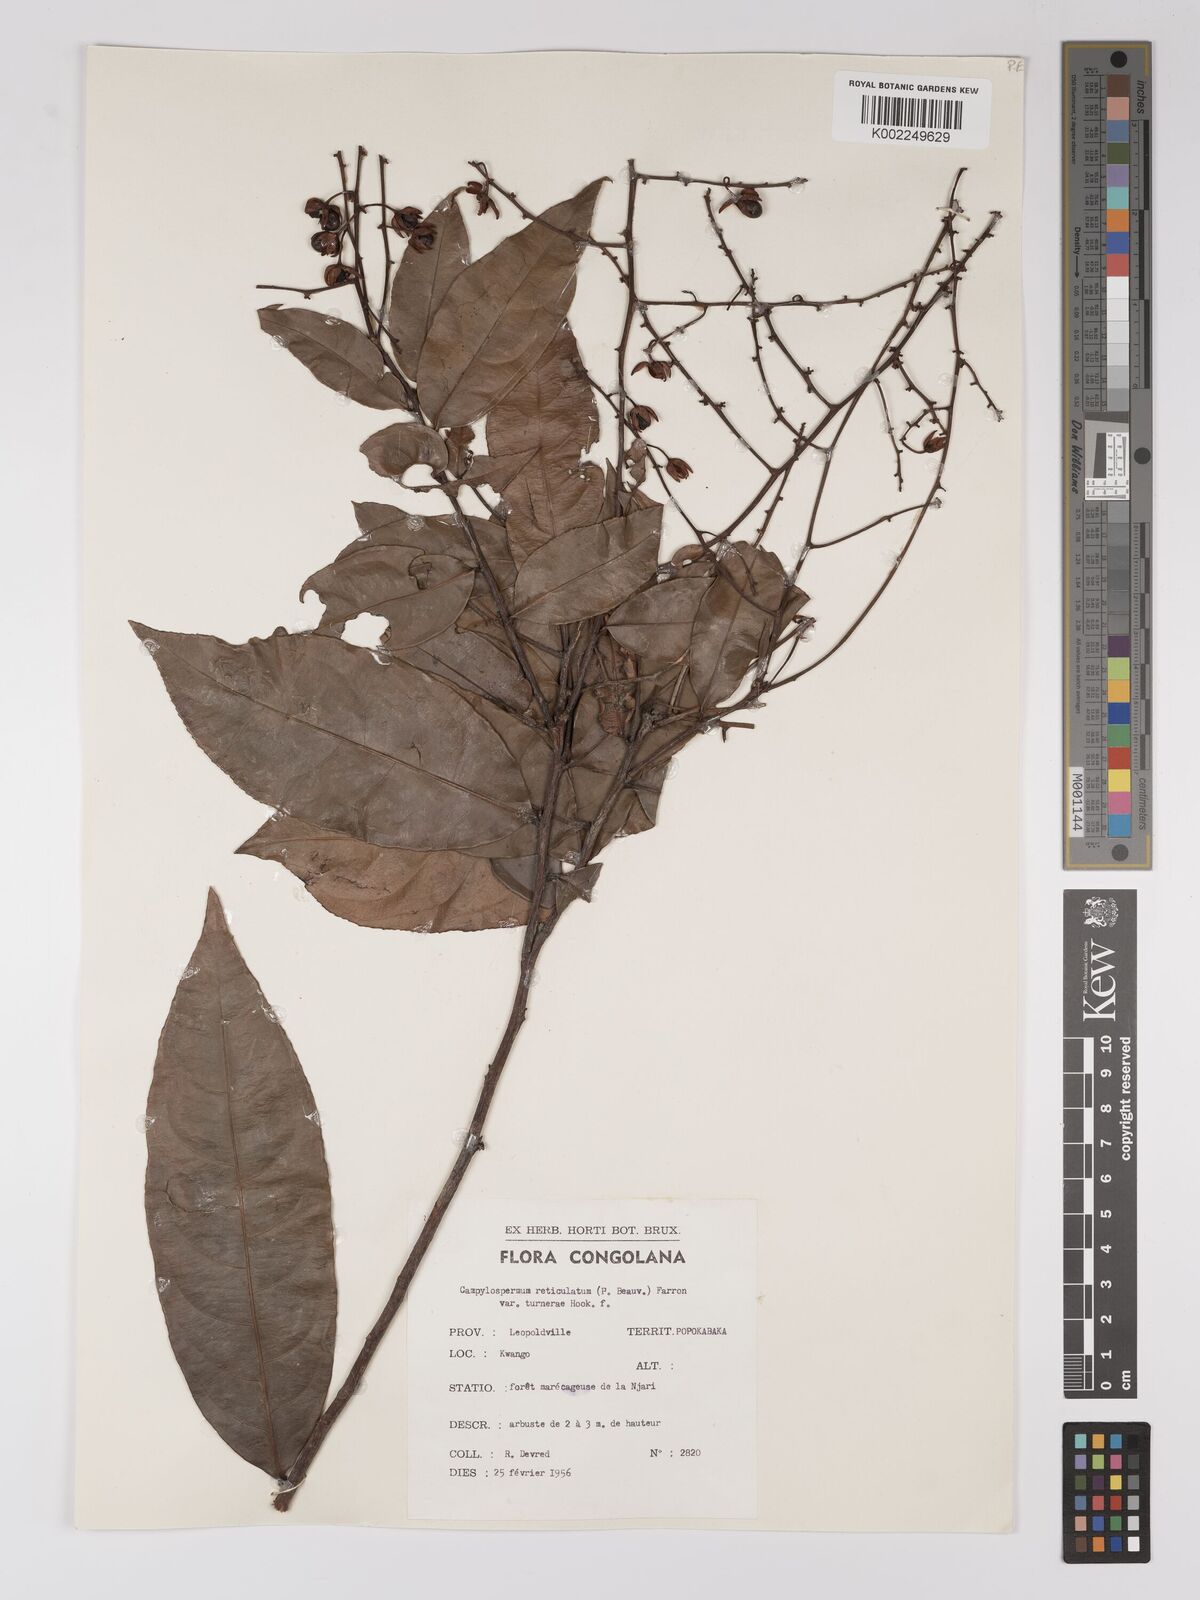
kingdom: Plantae
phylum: Tracheophyta
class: Magnoliopsida
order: Malpighiales
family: Ochnaceae
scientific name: Ochnaceae
